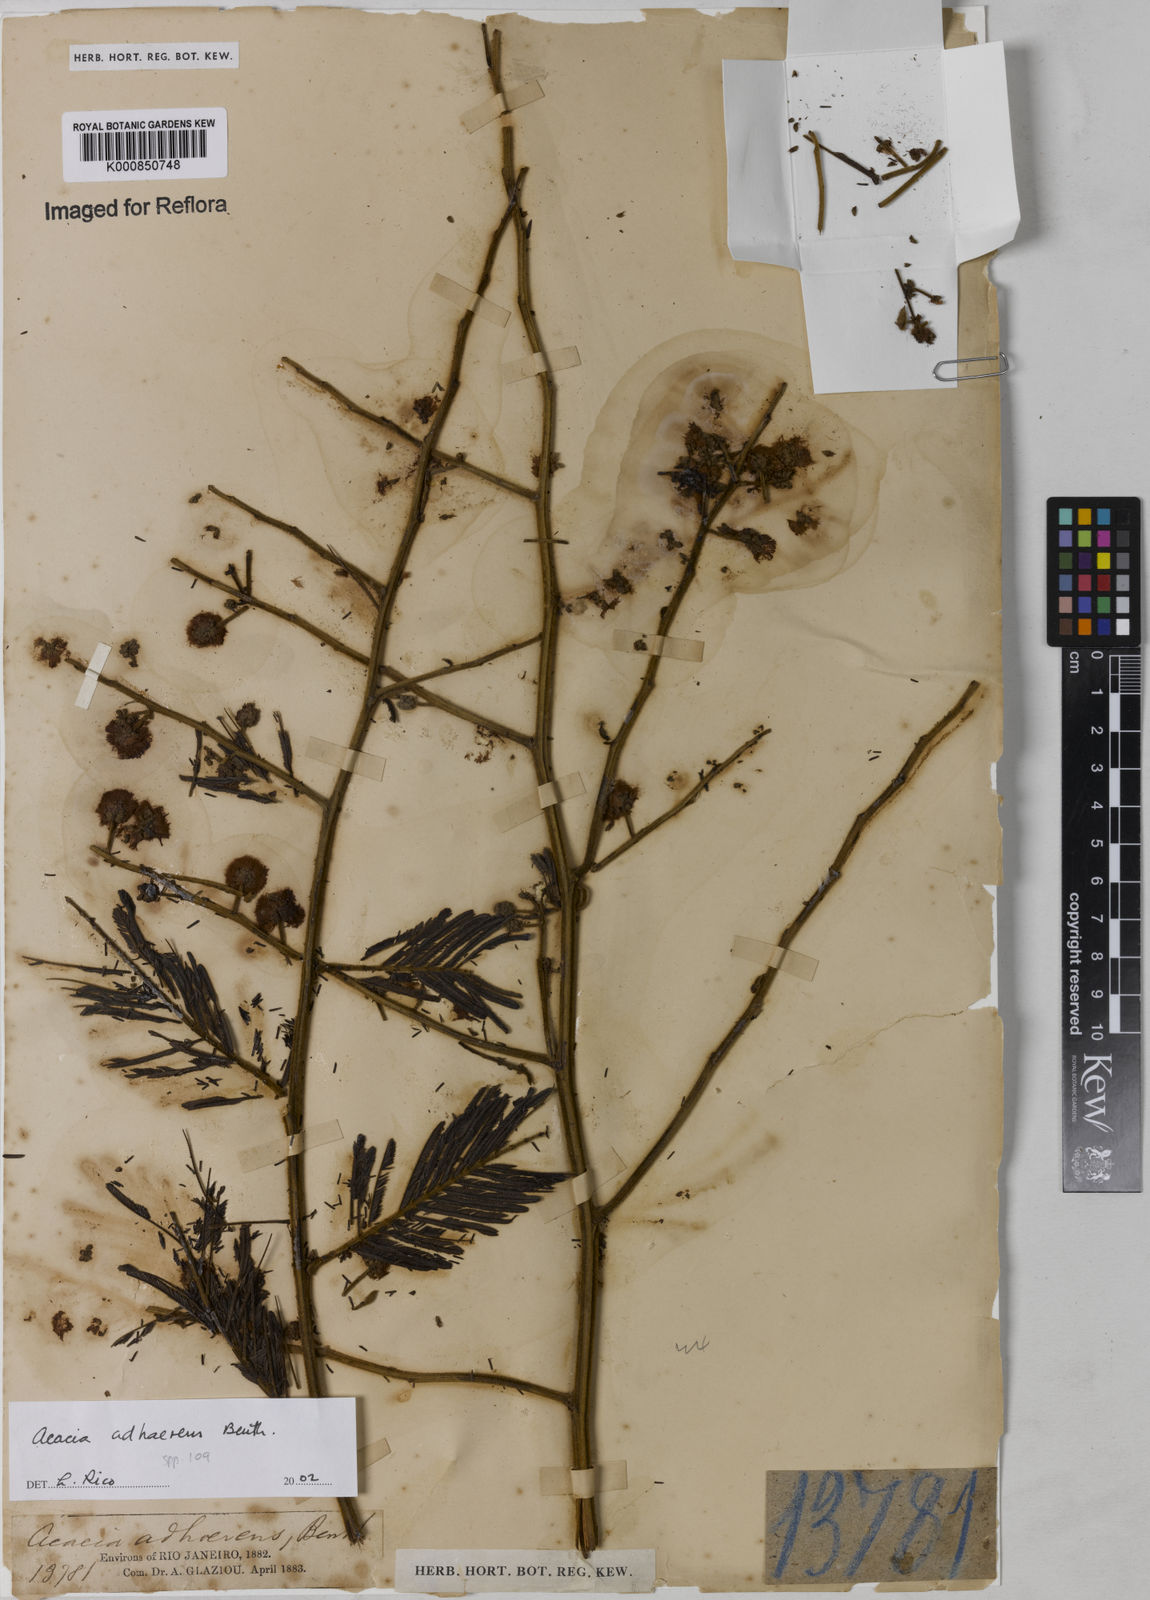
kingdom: Plantae
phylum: Tracheophyta
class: Magnoliopsida
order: Fabales
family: Fabaceae
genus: Senegalia
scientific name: Senegalia martiusiana
